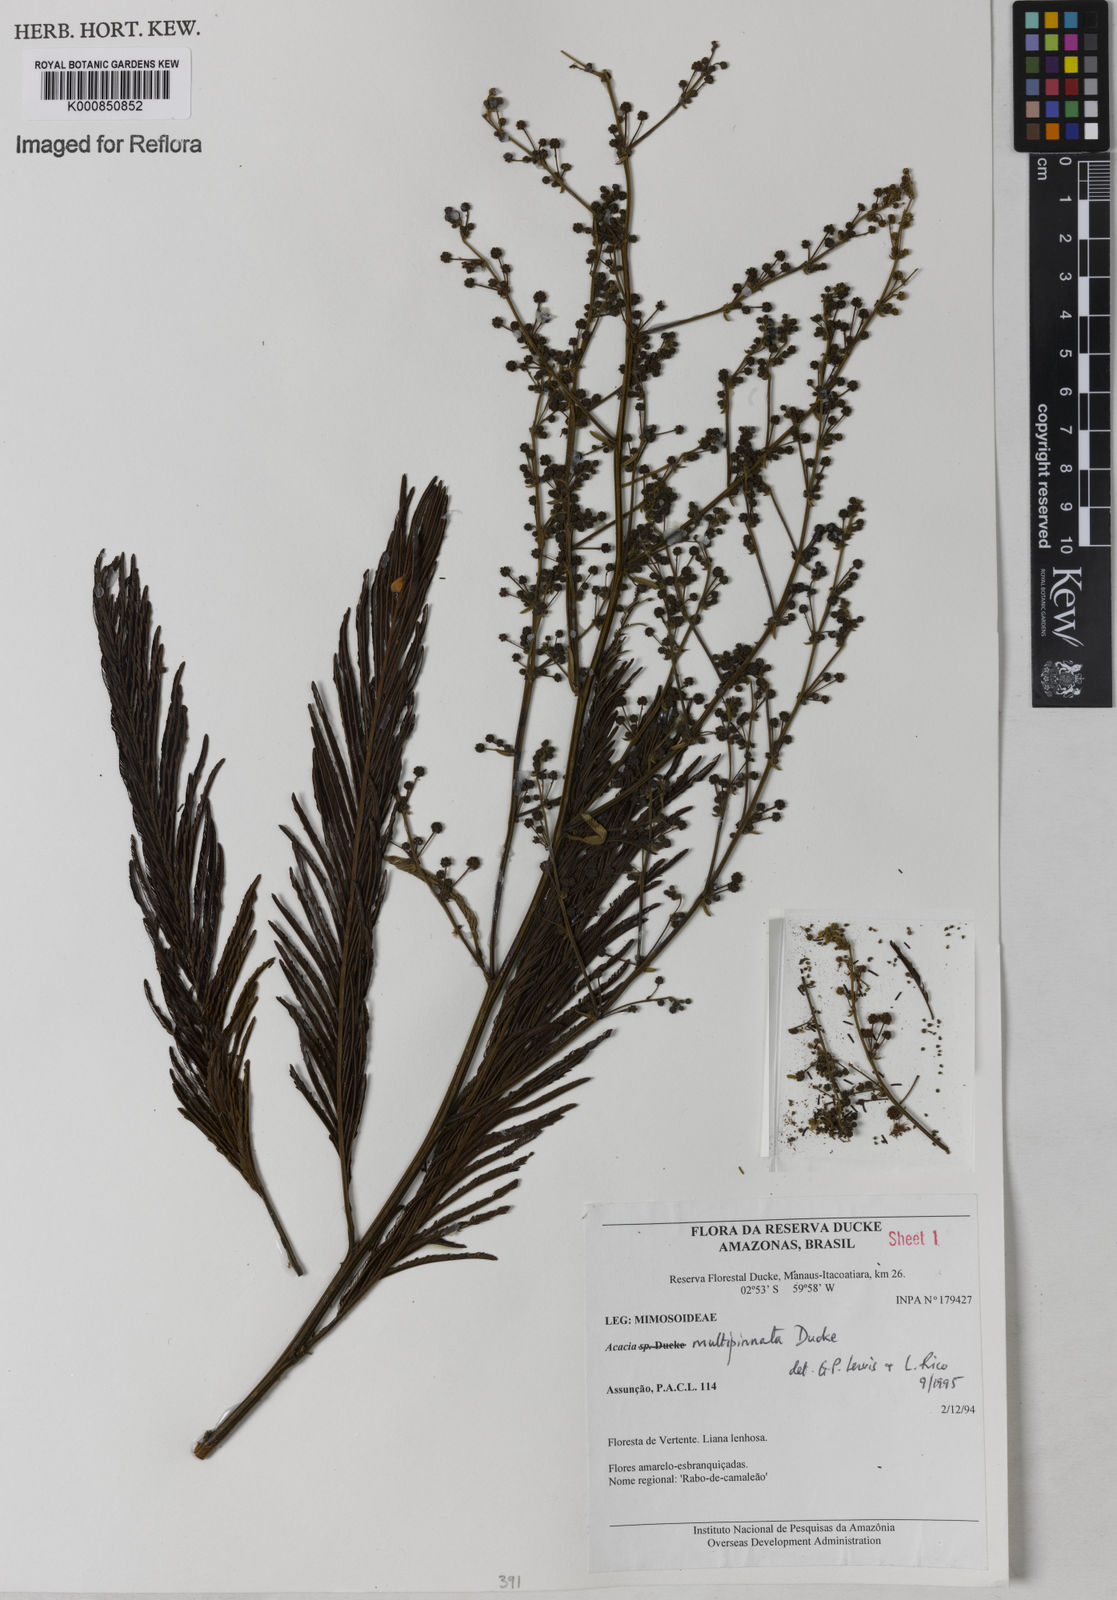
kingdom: Plantae
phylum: Tracheophyta
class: Magnoliopsida
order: Fabales
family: Fabaceae
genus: Senegalia
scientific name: Senegalia paniculata
